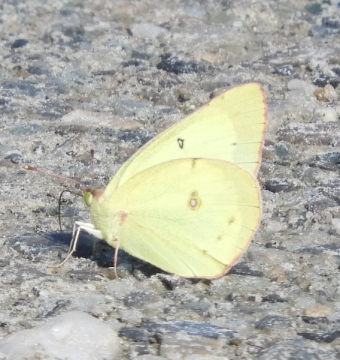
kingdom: Animalia
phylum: Arthropoda
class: Insecta
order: Lepidoptera
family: Pieridae
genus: Colias
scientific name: Colias philodice
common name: Clouded Sulphur
